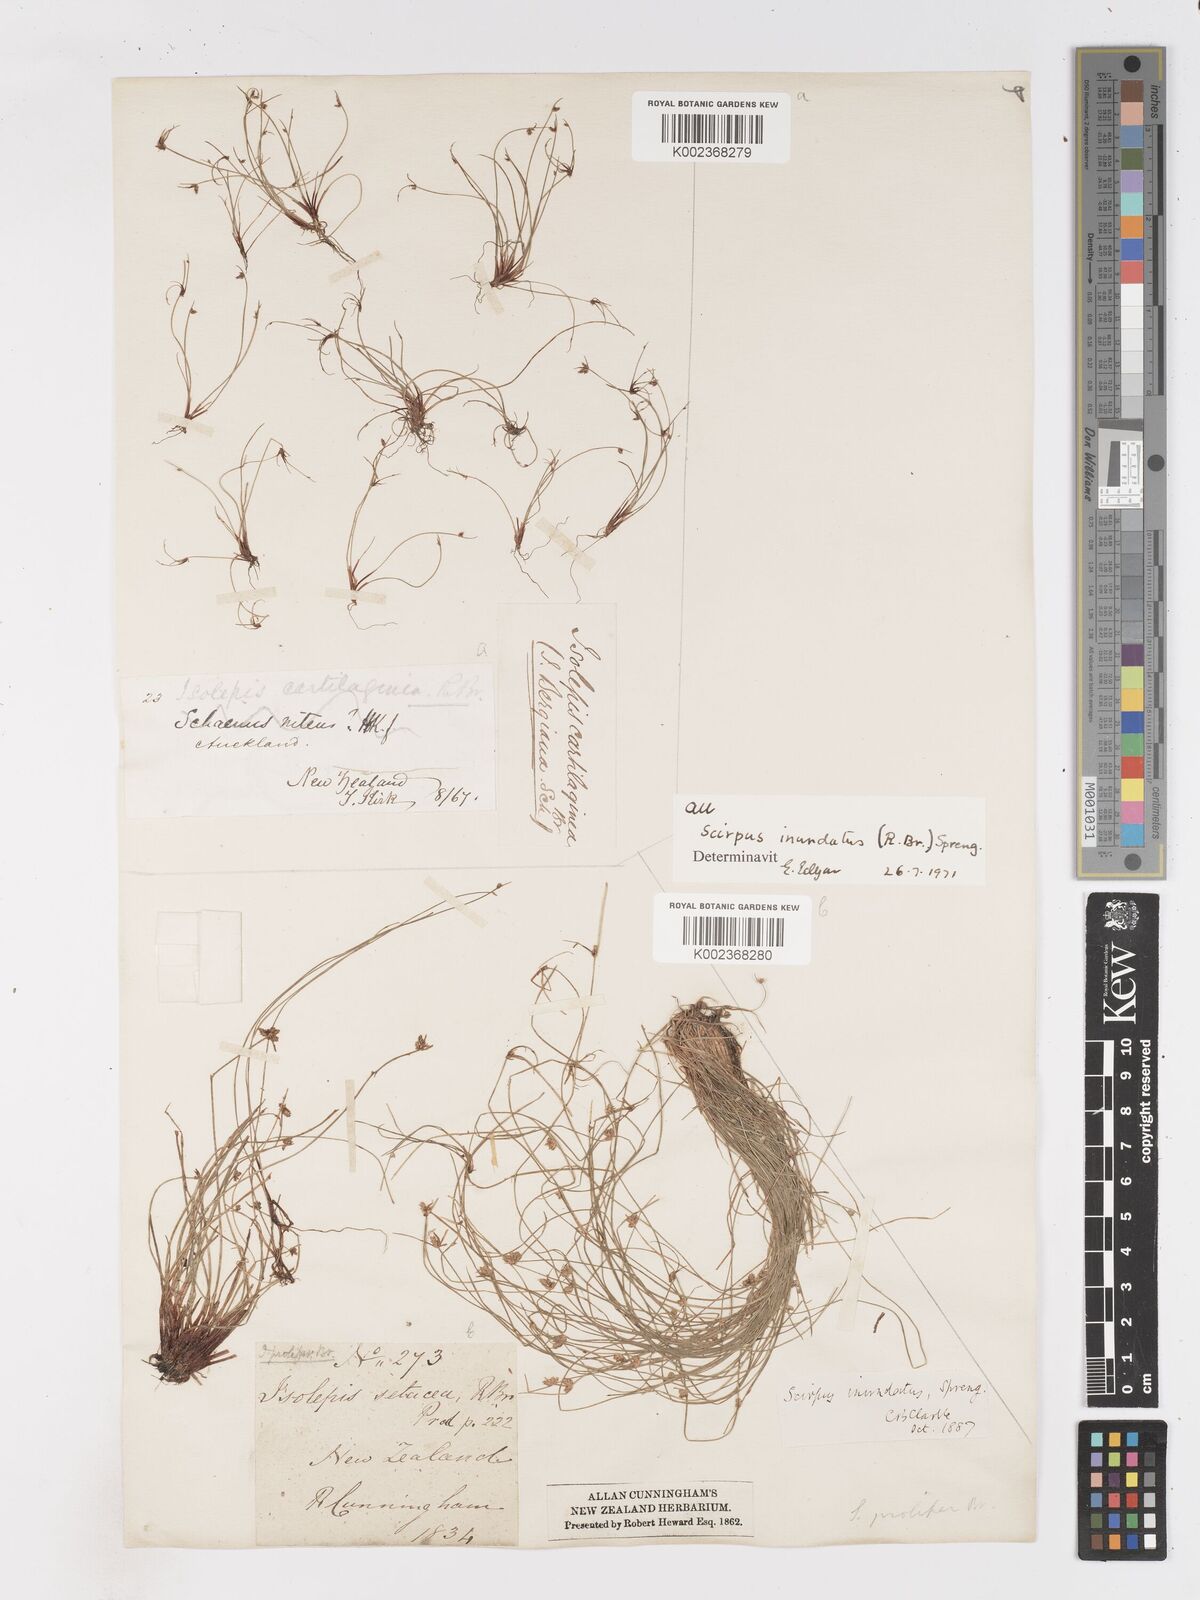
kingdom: Plantae
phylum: Tracheophyta
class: Liliopsida
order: Poales
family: Cyperaceae
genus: Isolepis
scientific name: Isolepis inundata
